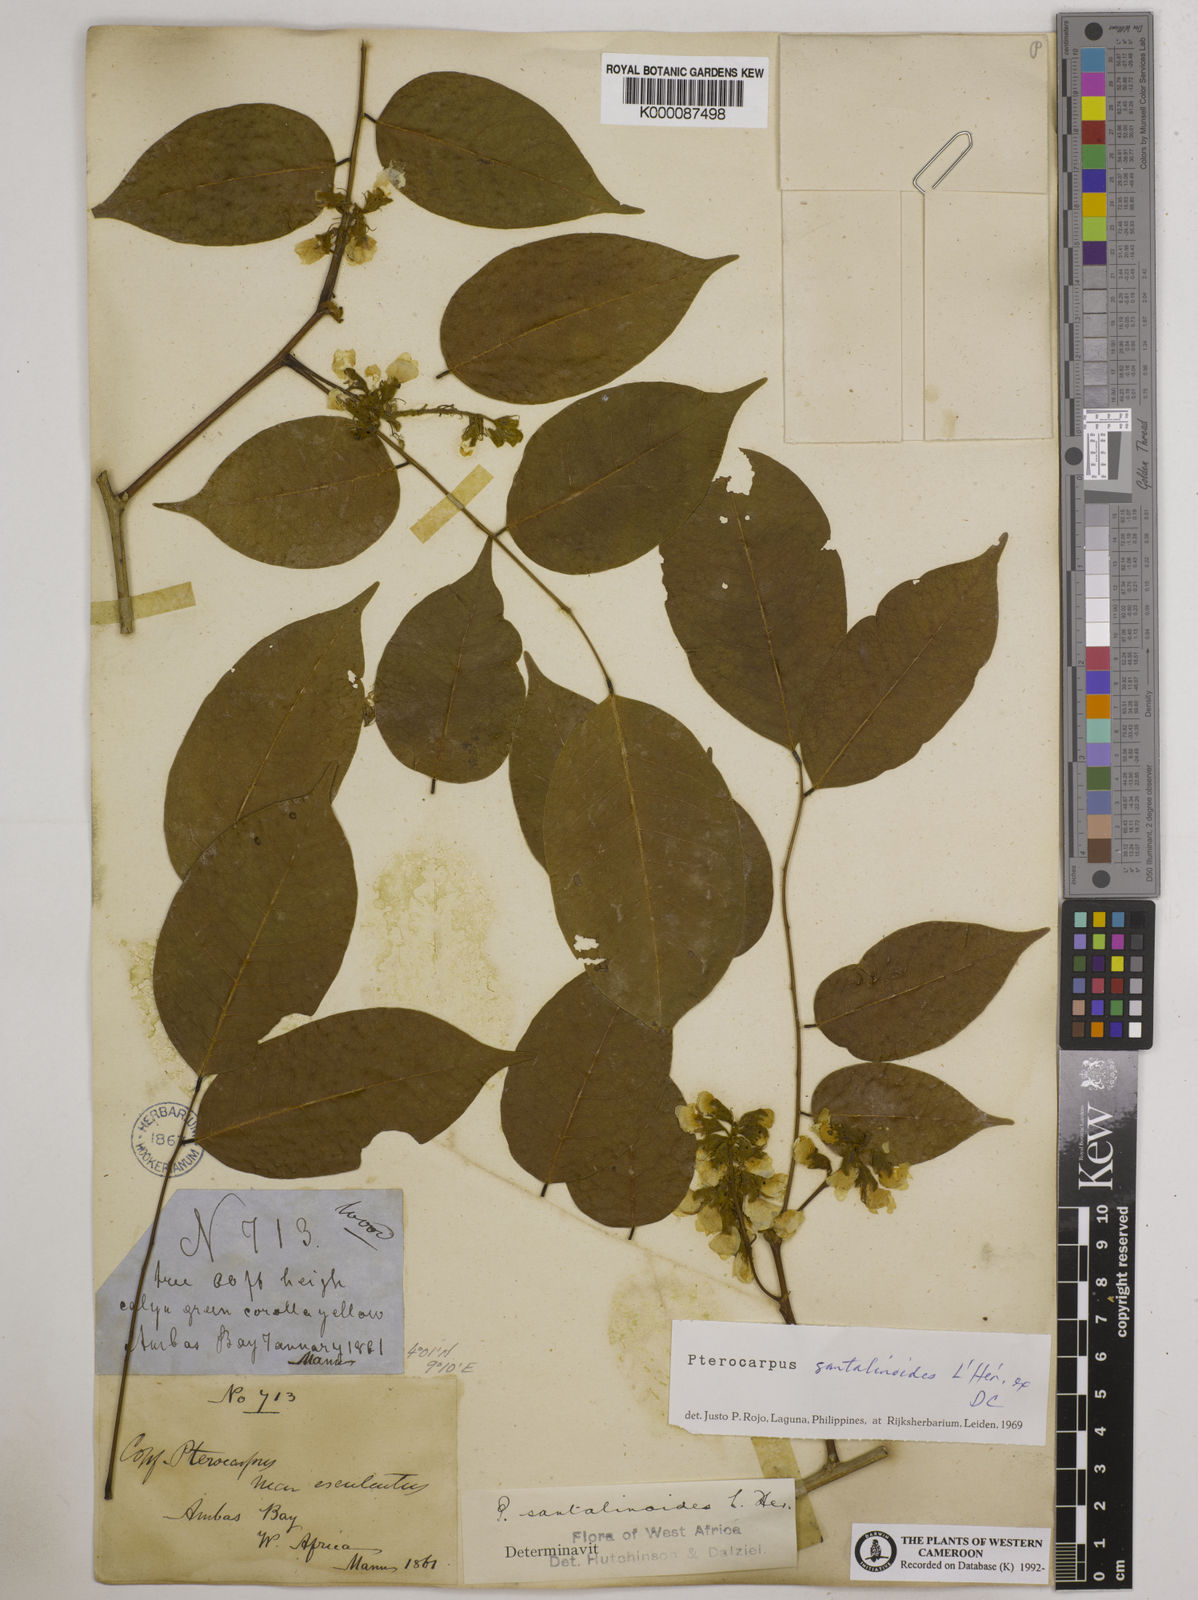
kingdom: Plantae
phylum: Tracheophyta
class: Magnoliopsida
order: Fabales
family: Fabaceae
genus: Pterocarpus
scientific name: Pterocarpus
